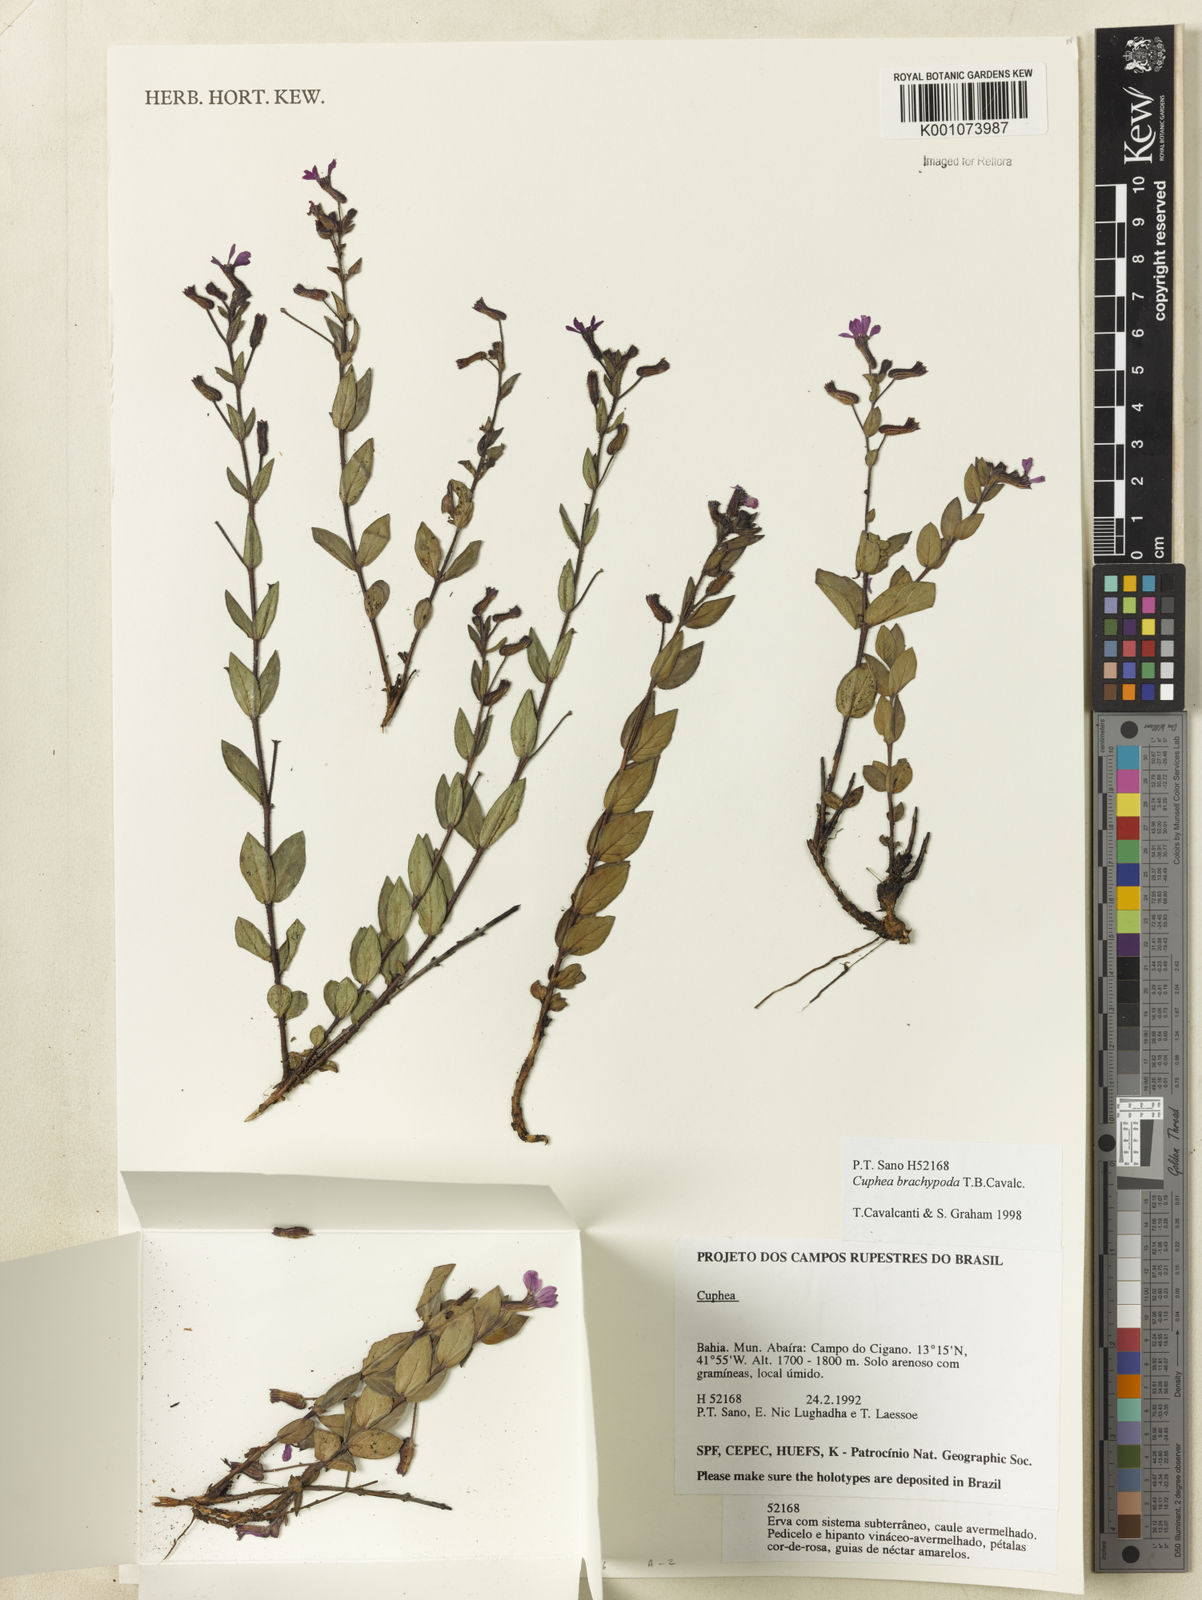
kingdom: Plantae
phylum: Tracheophyta
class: Magnoliopsida
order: Myrtales
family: Lythraceae
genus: Cuphea
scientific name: Cuphea brachypoda
